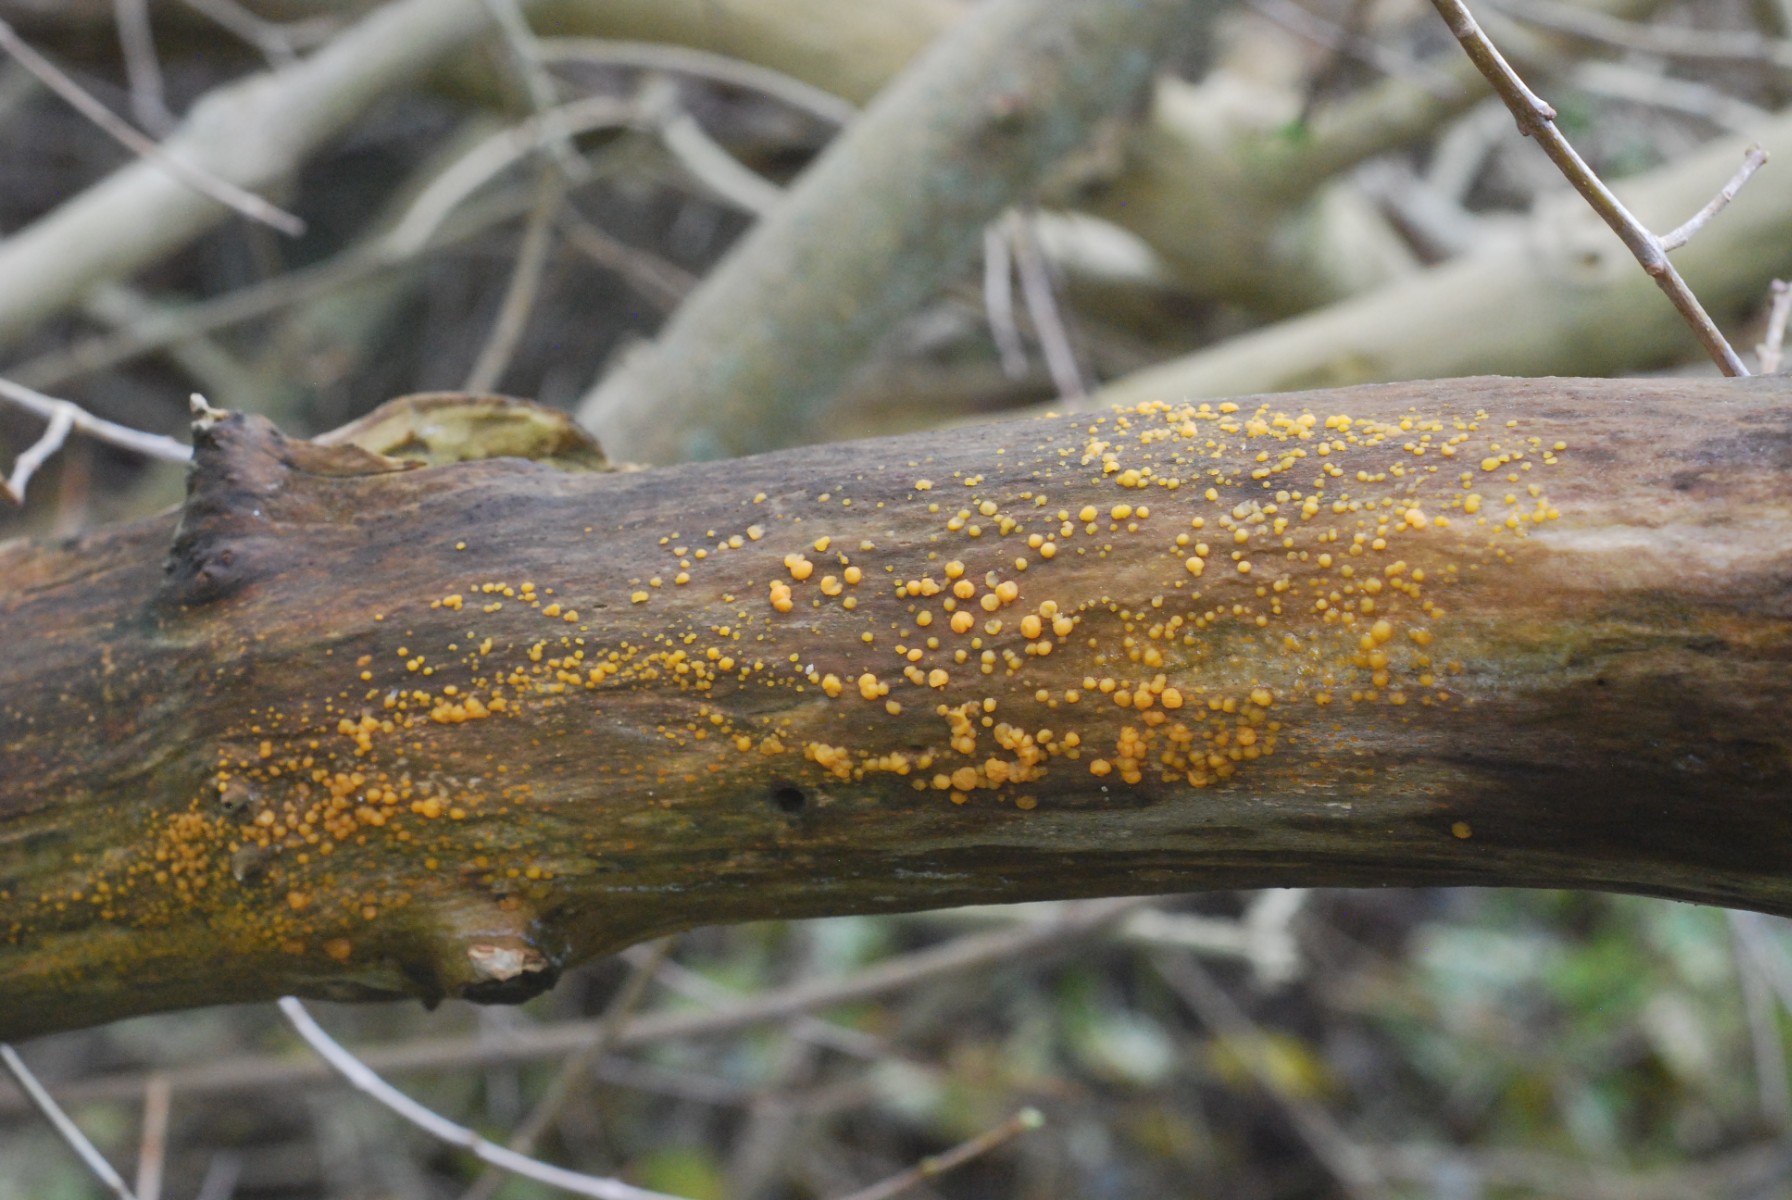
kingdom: Fungi
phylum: Basidiomycota
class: Dacrymycetes
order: Dacrymycetales
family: Dacrymycetaceae
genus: Dacrymyces
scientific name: Dacrymyces stillatus
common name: almindelig tåresvamp
